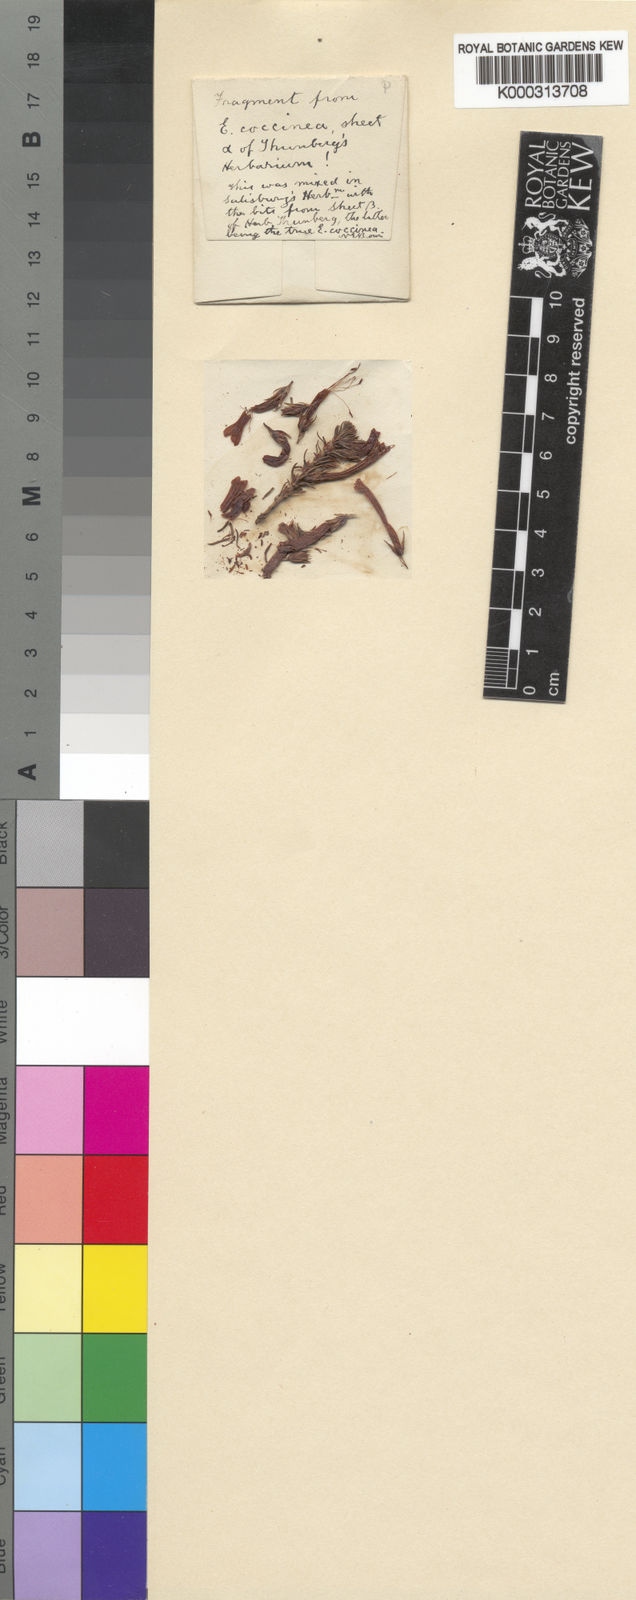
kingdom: Plantae
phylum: Tracheophyta
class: Magnoliopsida
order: Ericales
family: Ericaceae
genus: Erica
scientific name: Erica
